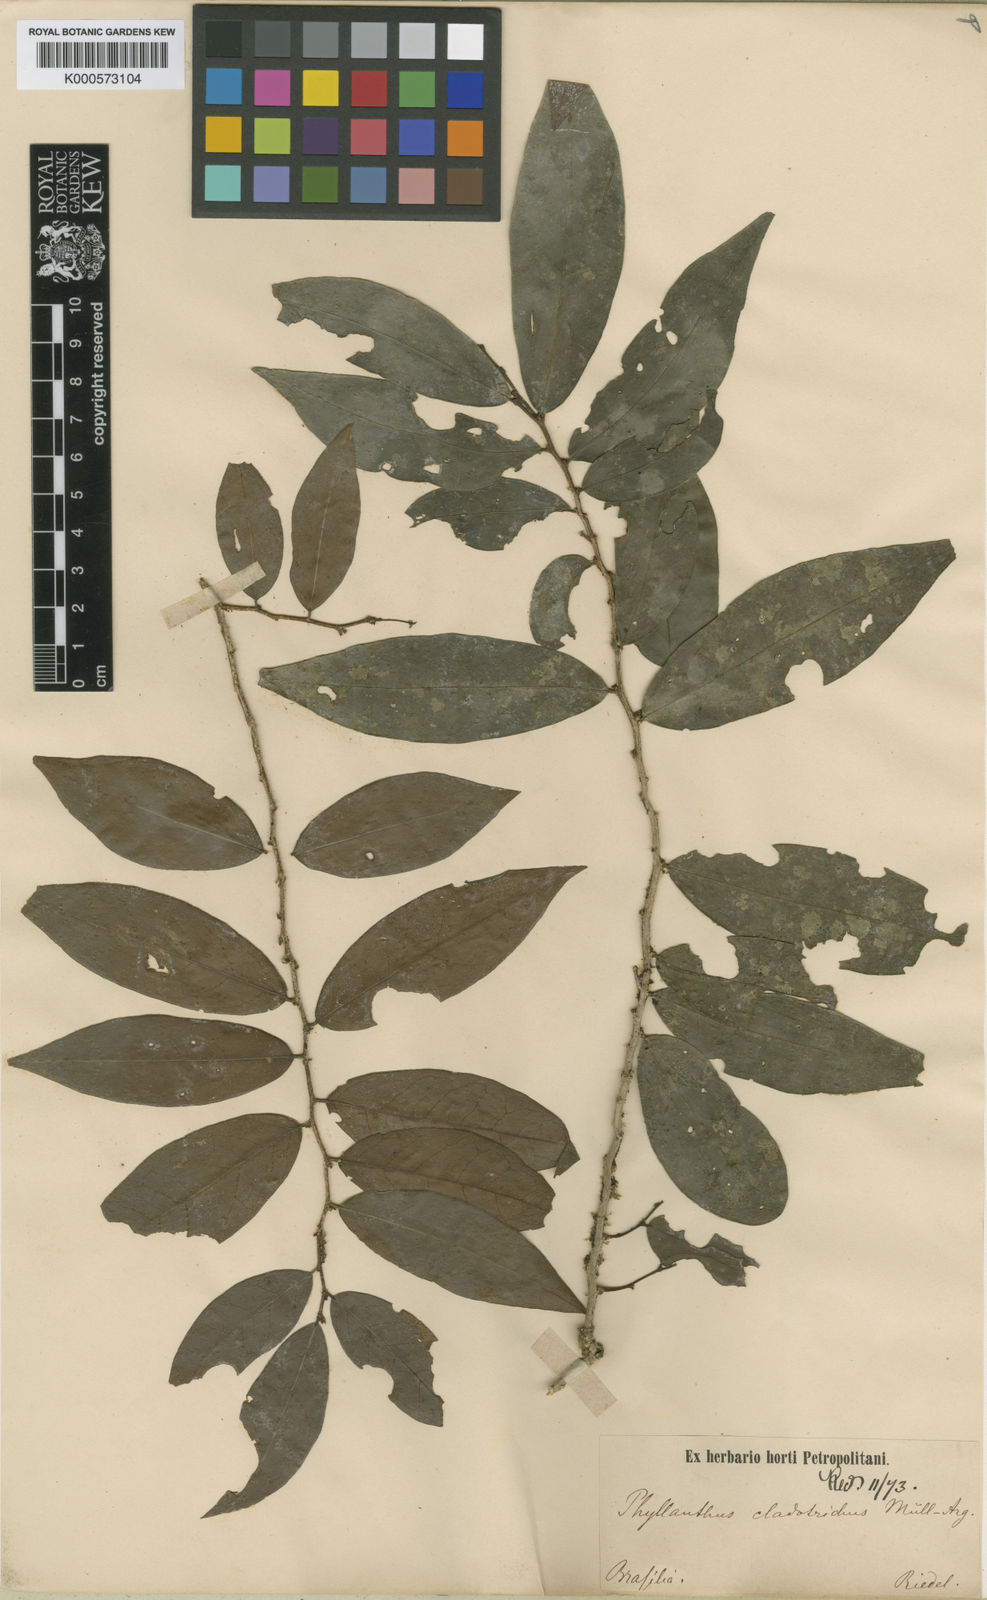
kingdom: Plantae
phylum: Tracheophyta
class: Magnoliopsida
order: Malpighiales
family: Phyllanthaceae
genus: Phyllanthus
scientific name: Phyllanthus
